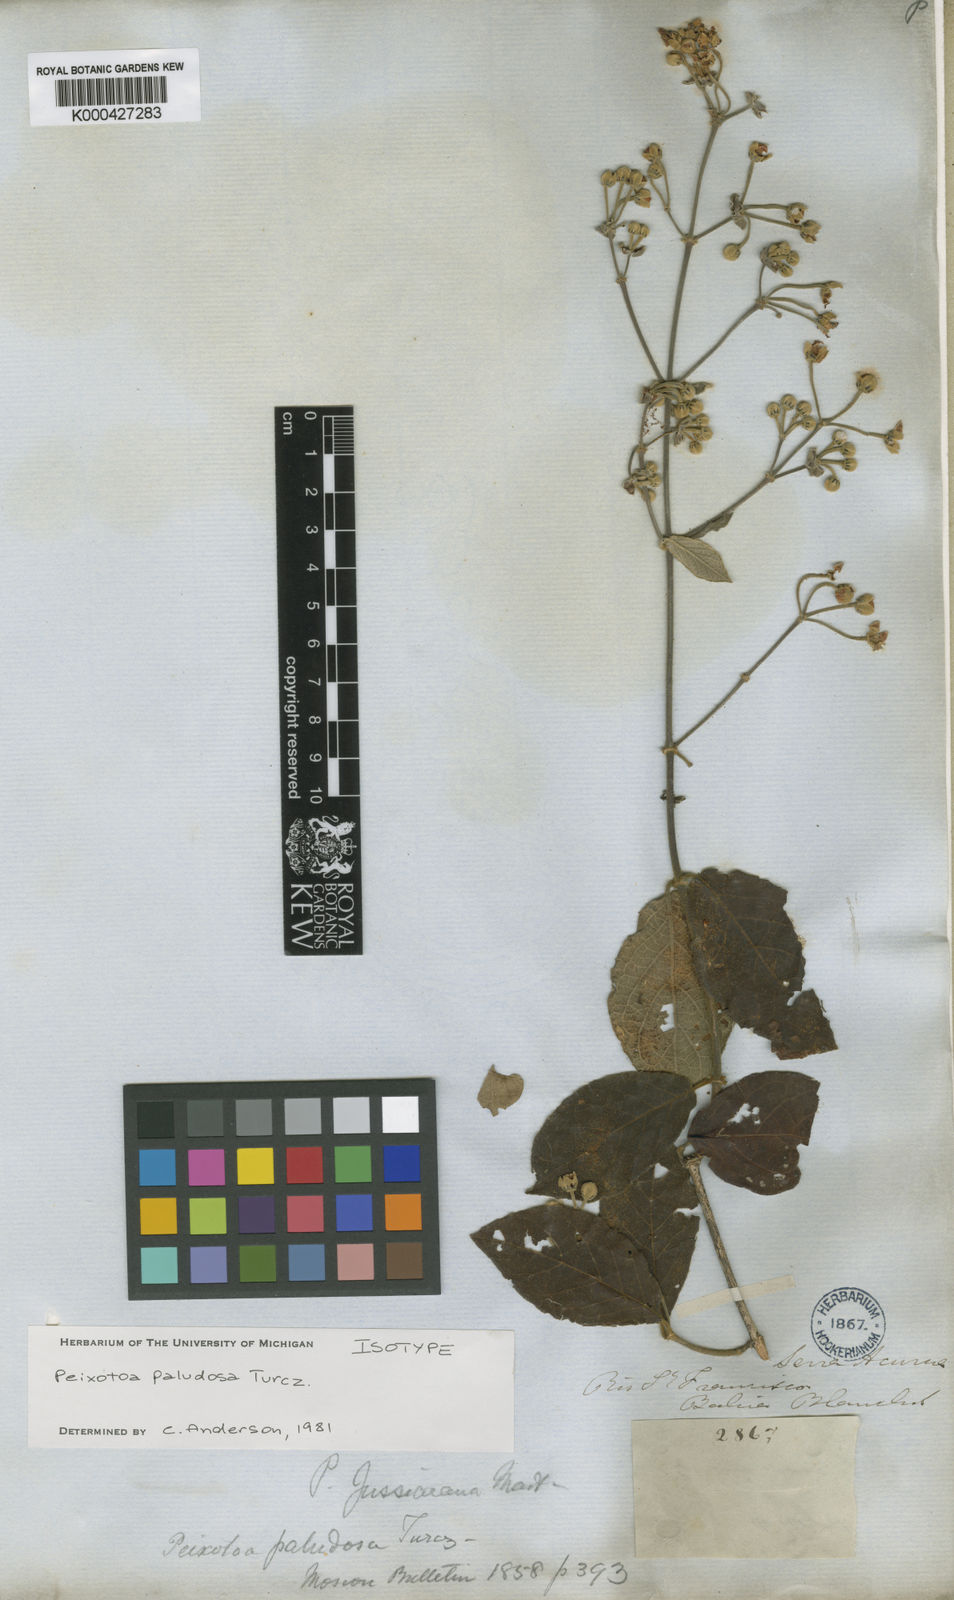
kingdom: Plantae
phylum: Tracheophyta
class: Magnoliopsida
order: Malpighiales
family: Malpighiaceae
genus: Peixotoa
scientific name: Peixotoa paludosa
